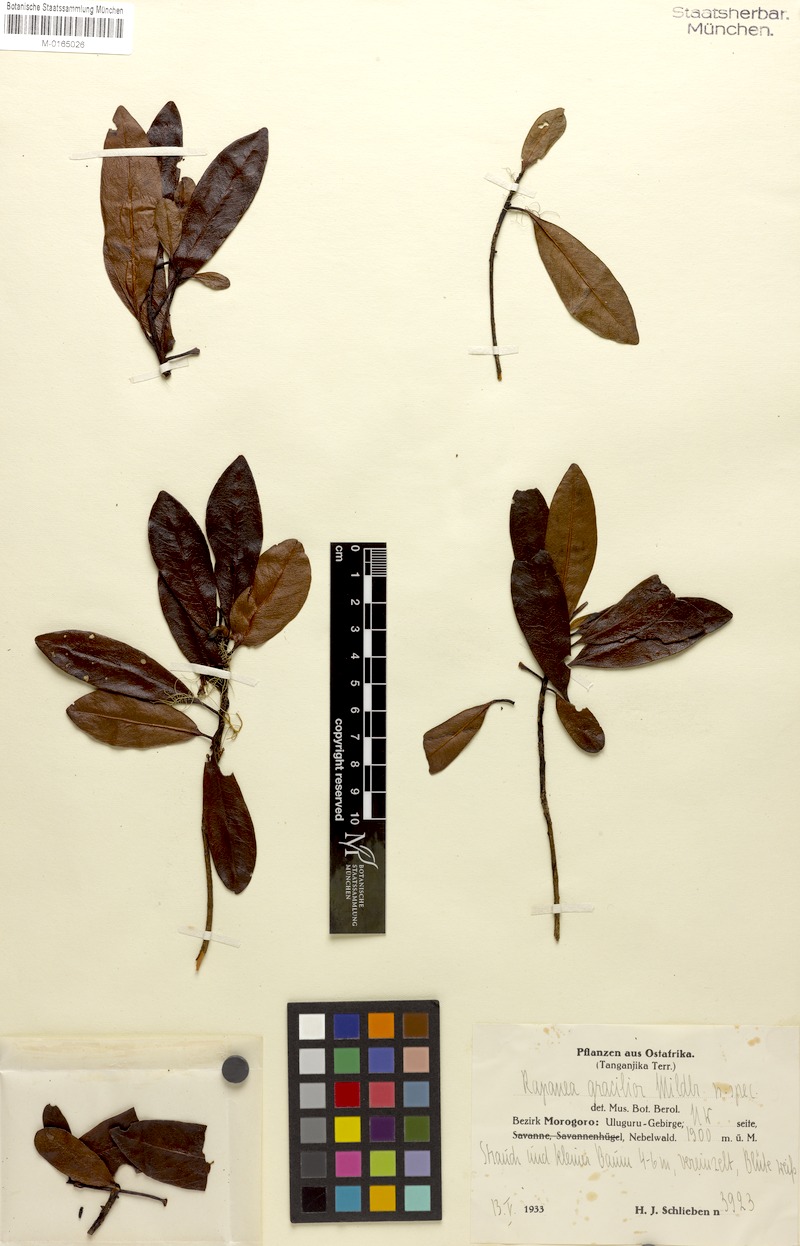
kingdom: Plantae
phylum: Tracheophyta
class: Magnoliopsida
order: Ericales
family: Primulaceae
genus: Myrsine
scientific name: Myrsine melanophloeos
